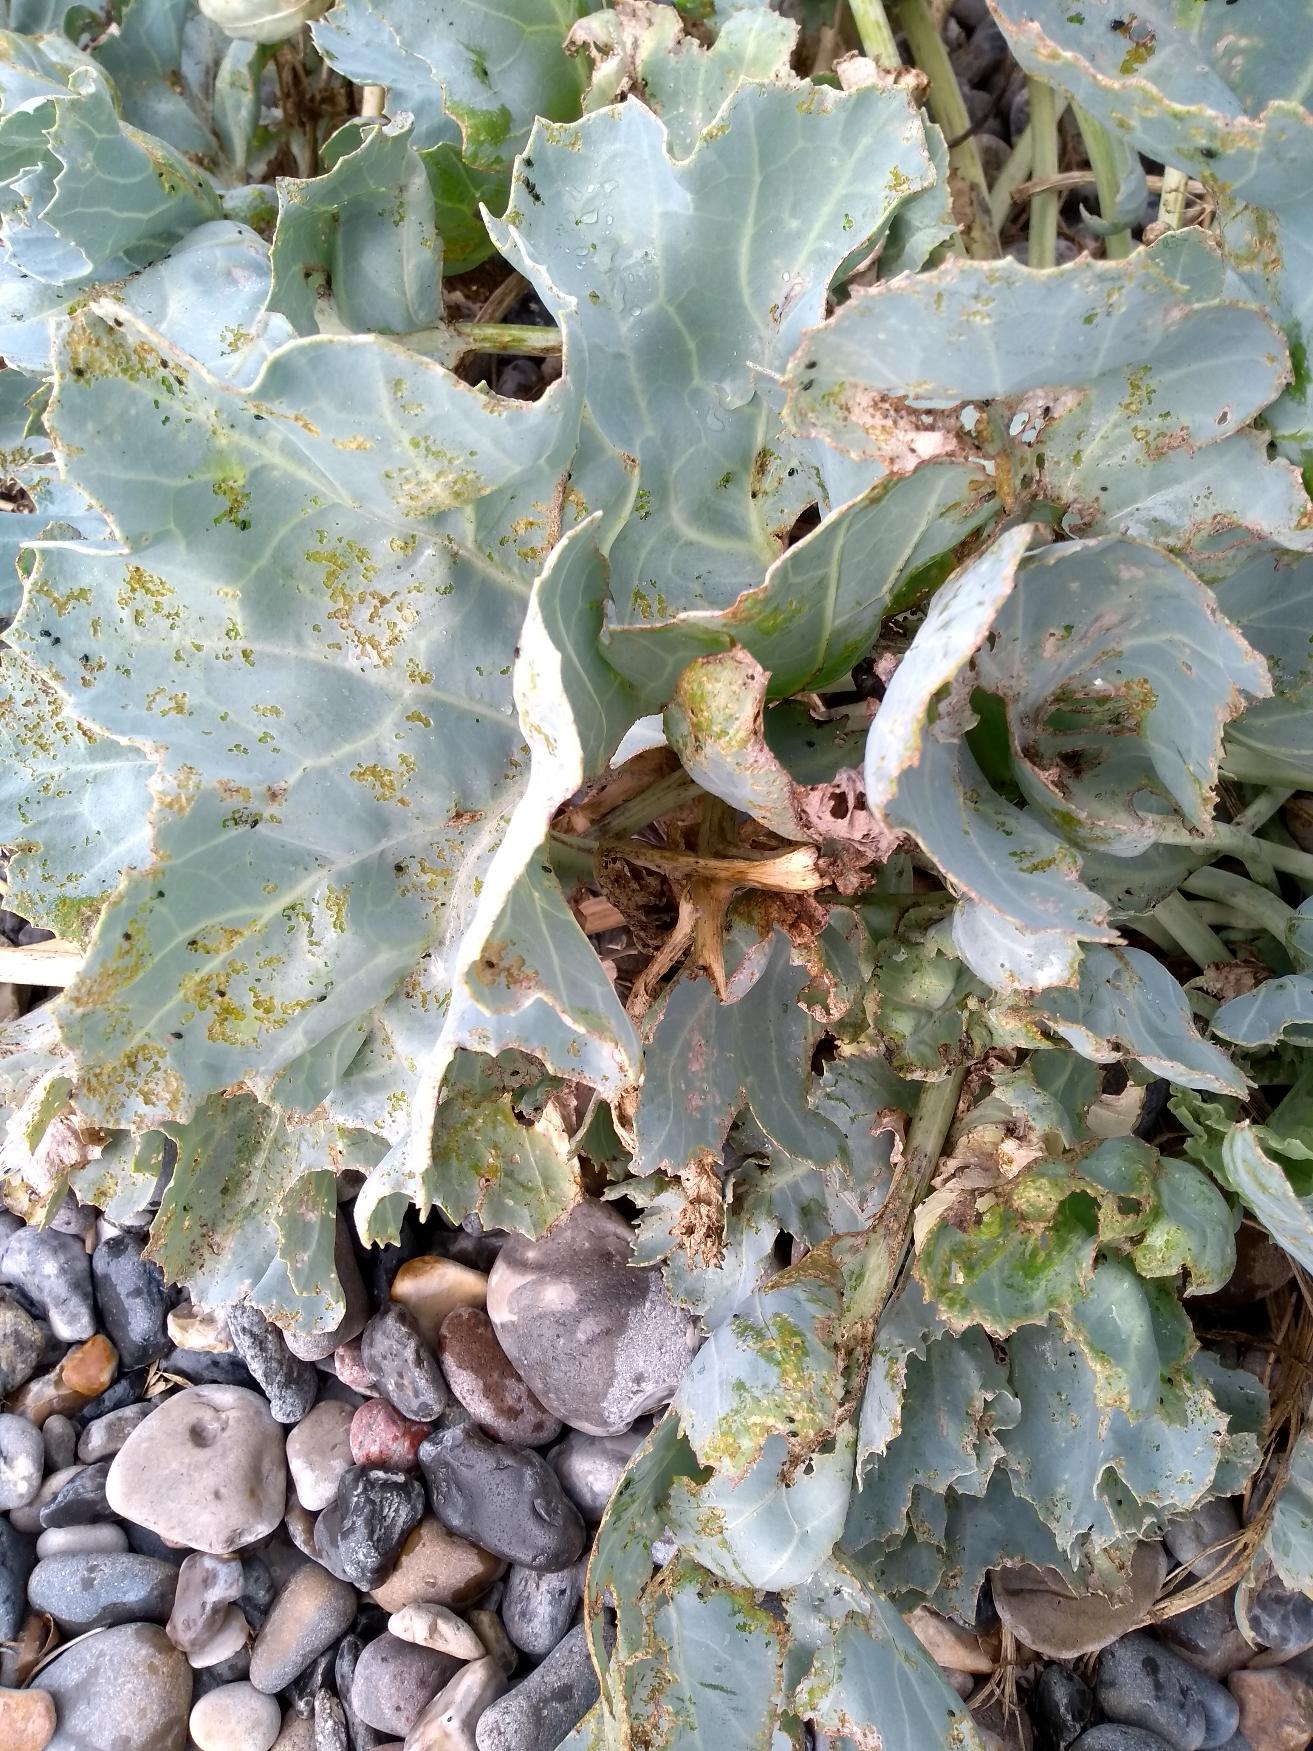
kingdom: Plantae
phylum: Tracheophyta
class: Magnoliopsida
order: Brassicales
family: Brassicaceae
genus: Crambe
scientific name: Crambe maritima
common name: Strandkål
